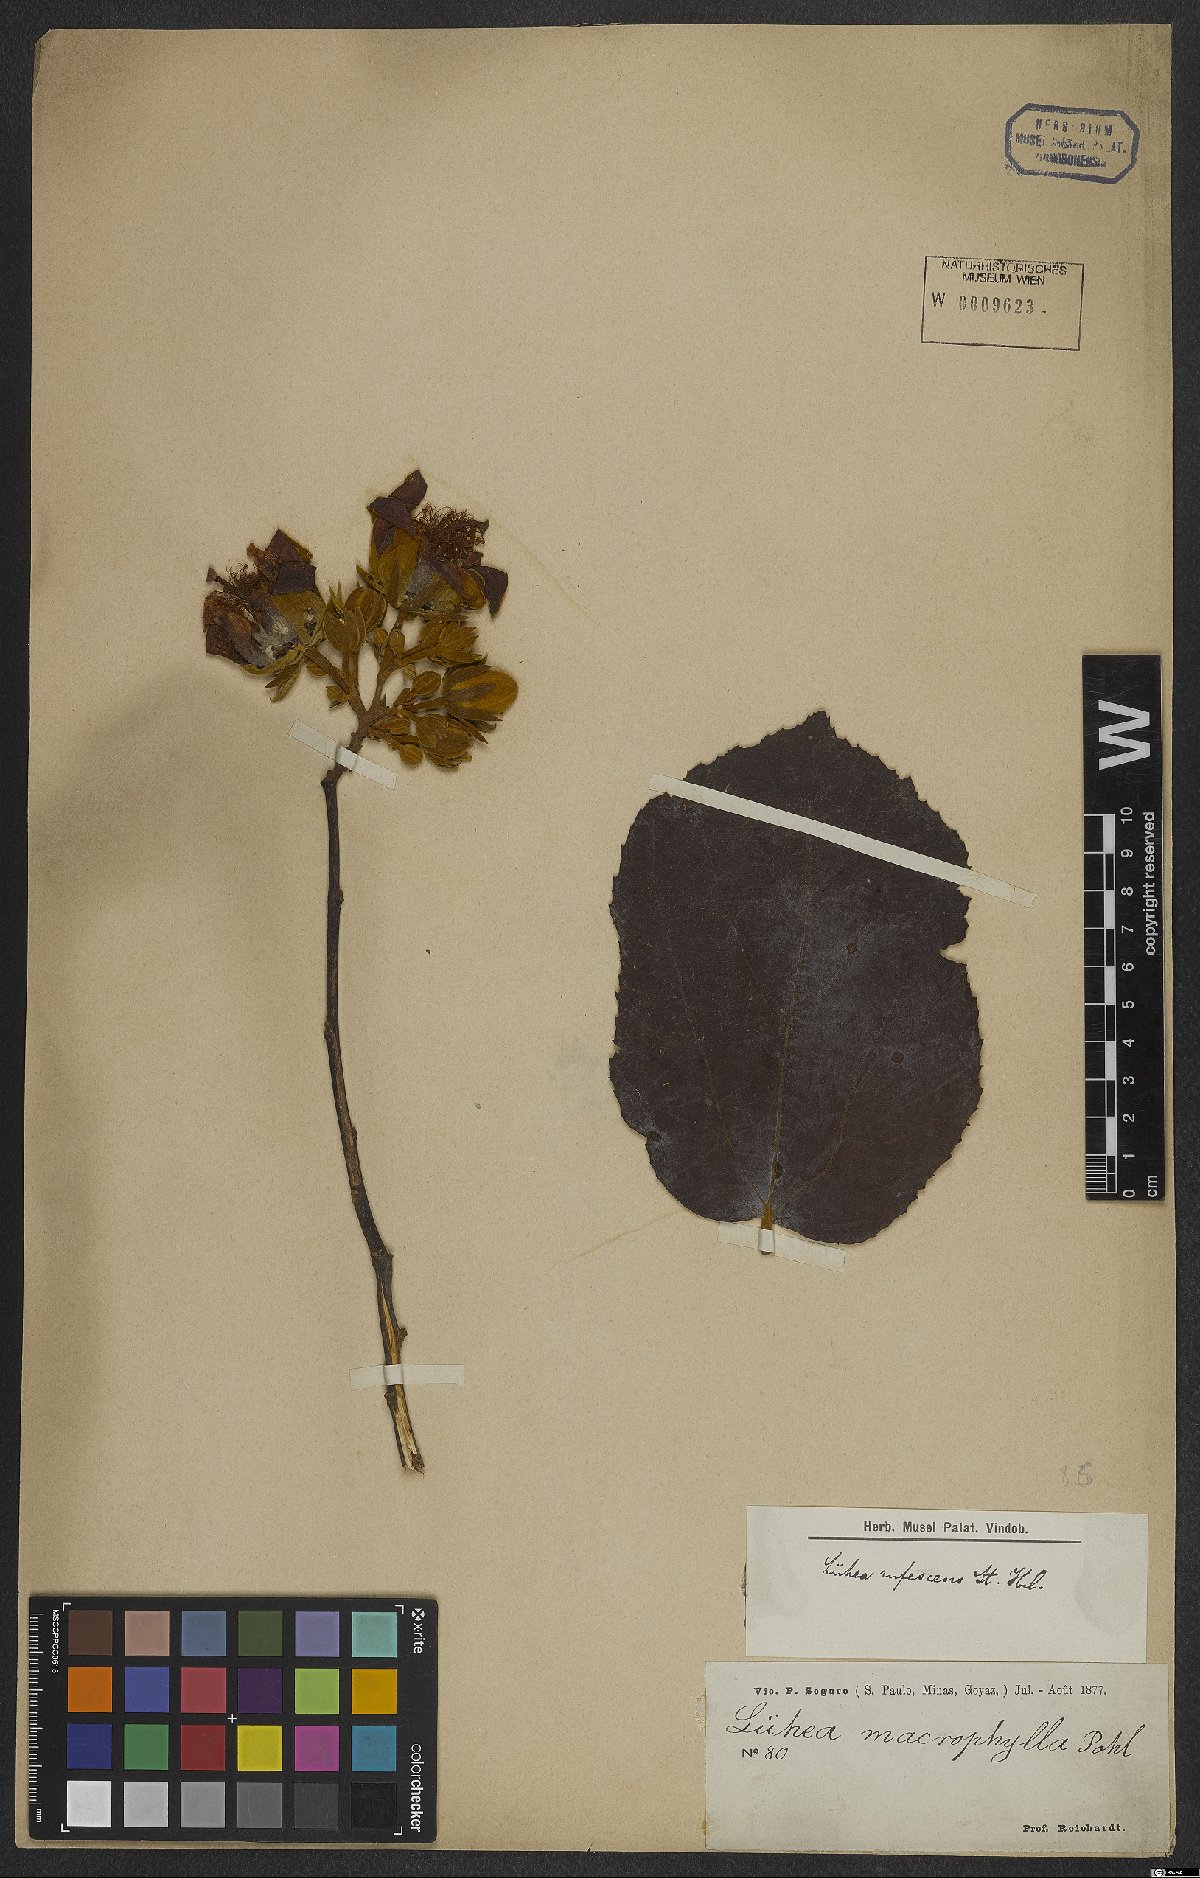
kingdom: Plantae
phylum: Tracheophyta
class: Magnoliopsida
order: Malvales
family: Malvaceae
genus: Luehea
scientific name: Luehea rufescens
